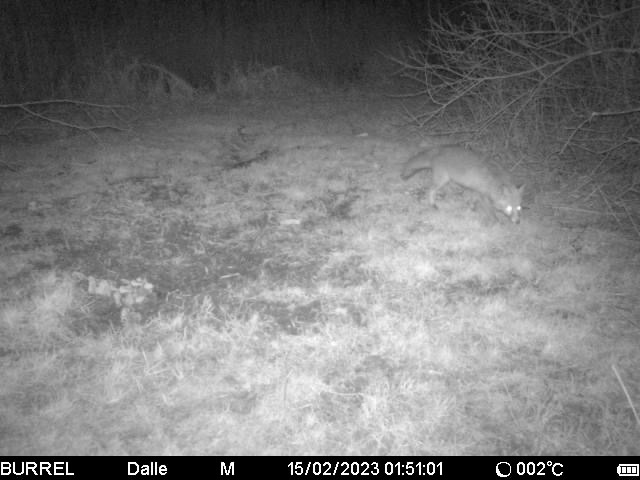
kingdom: Animalia
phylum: Chordata
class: Mammalia
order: Carnivora
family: Canidae
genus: Vulpes
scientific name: Vulpes vulpes
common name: Ræv
